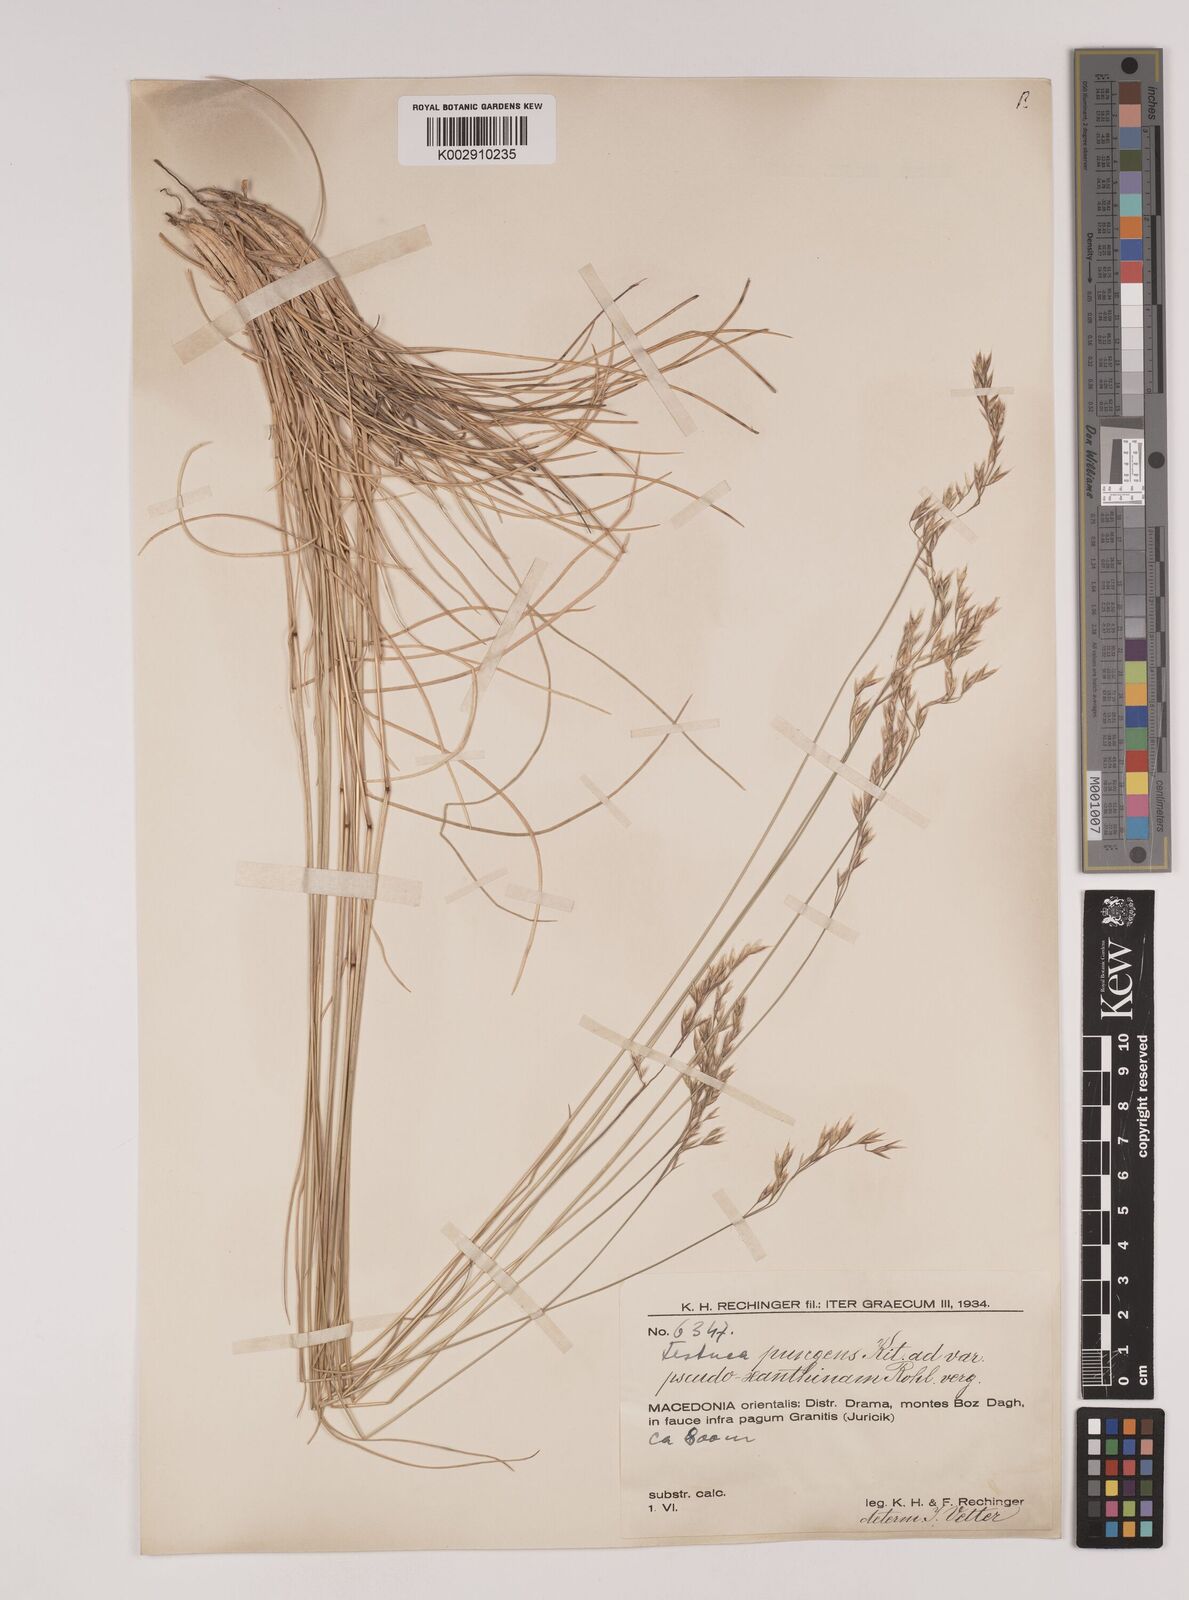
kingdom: Plantae
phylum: Tracheophyta
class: Liliopsida
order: Poales
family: Poaceae
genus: Festuca
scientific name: Festuca bosniaca
